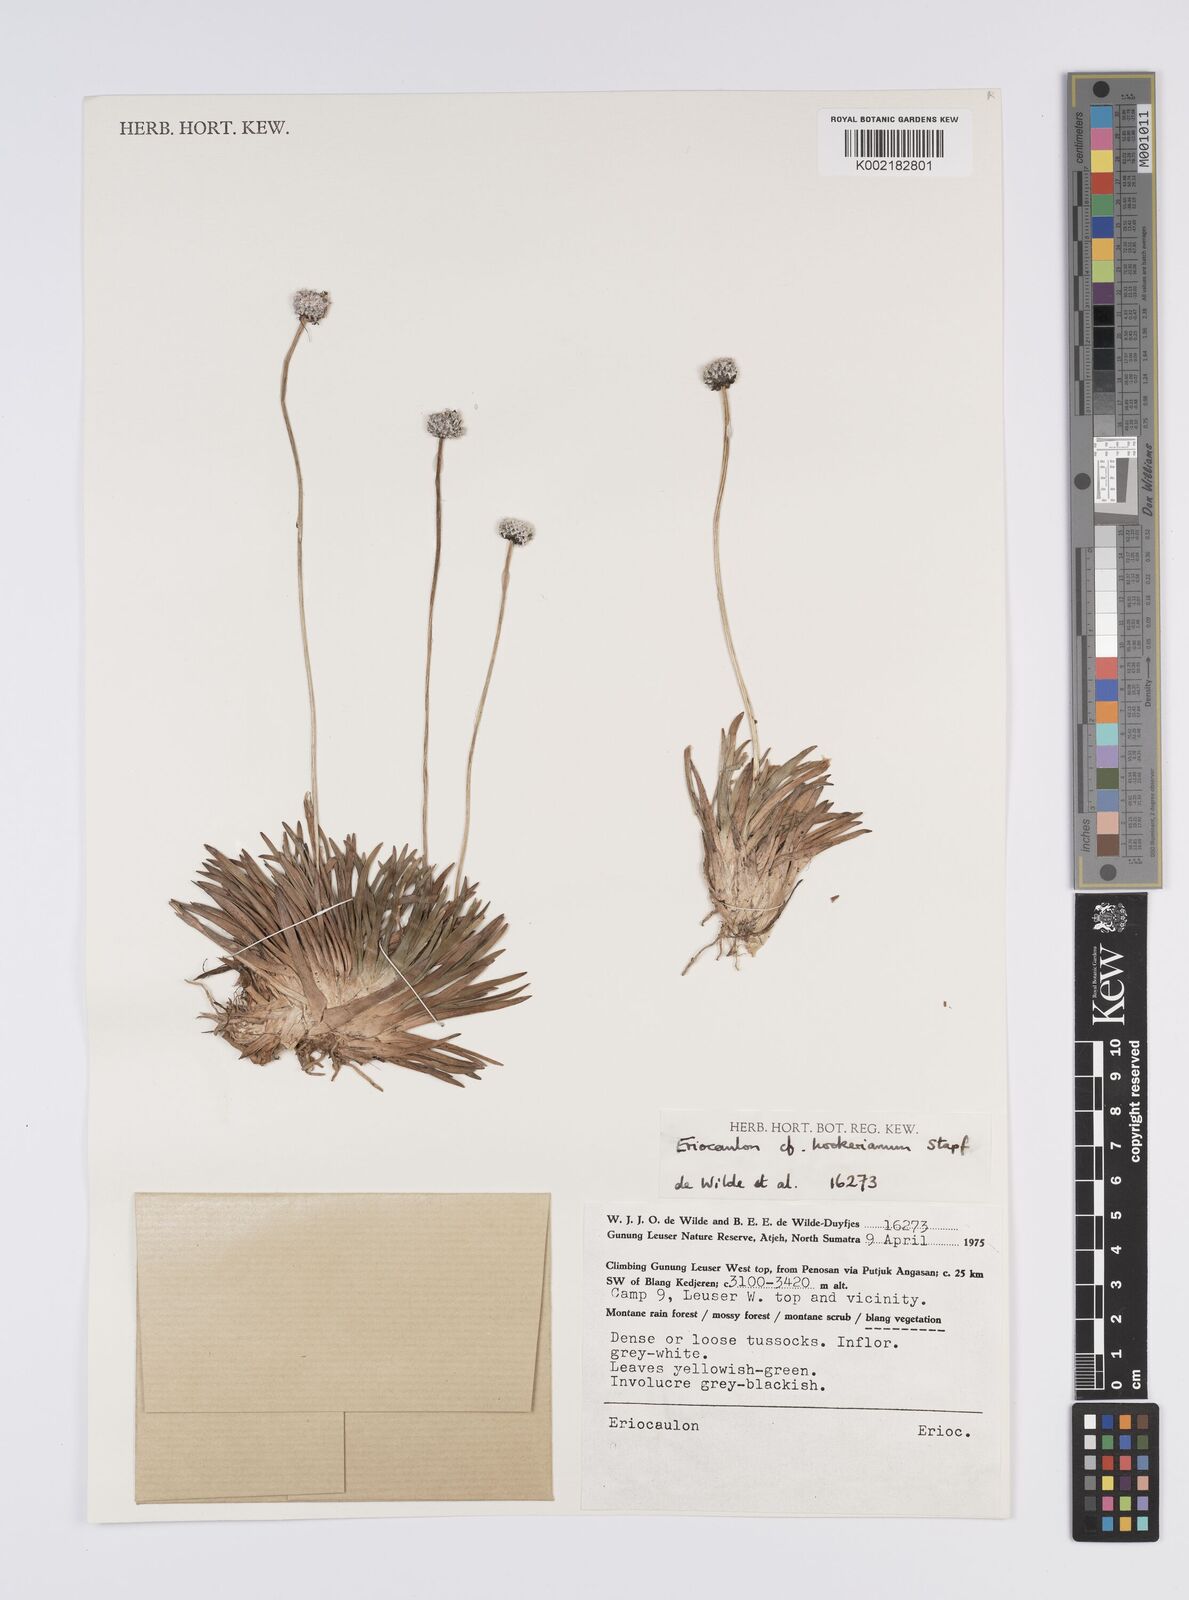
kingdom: Plantae
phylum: Tracheophyta
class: Liliopsida
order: Poales
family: Eriocaulaceae
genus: Eriocaulon
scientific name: Eriocaulon hookerianum
